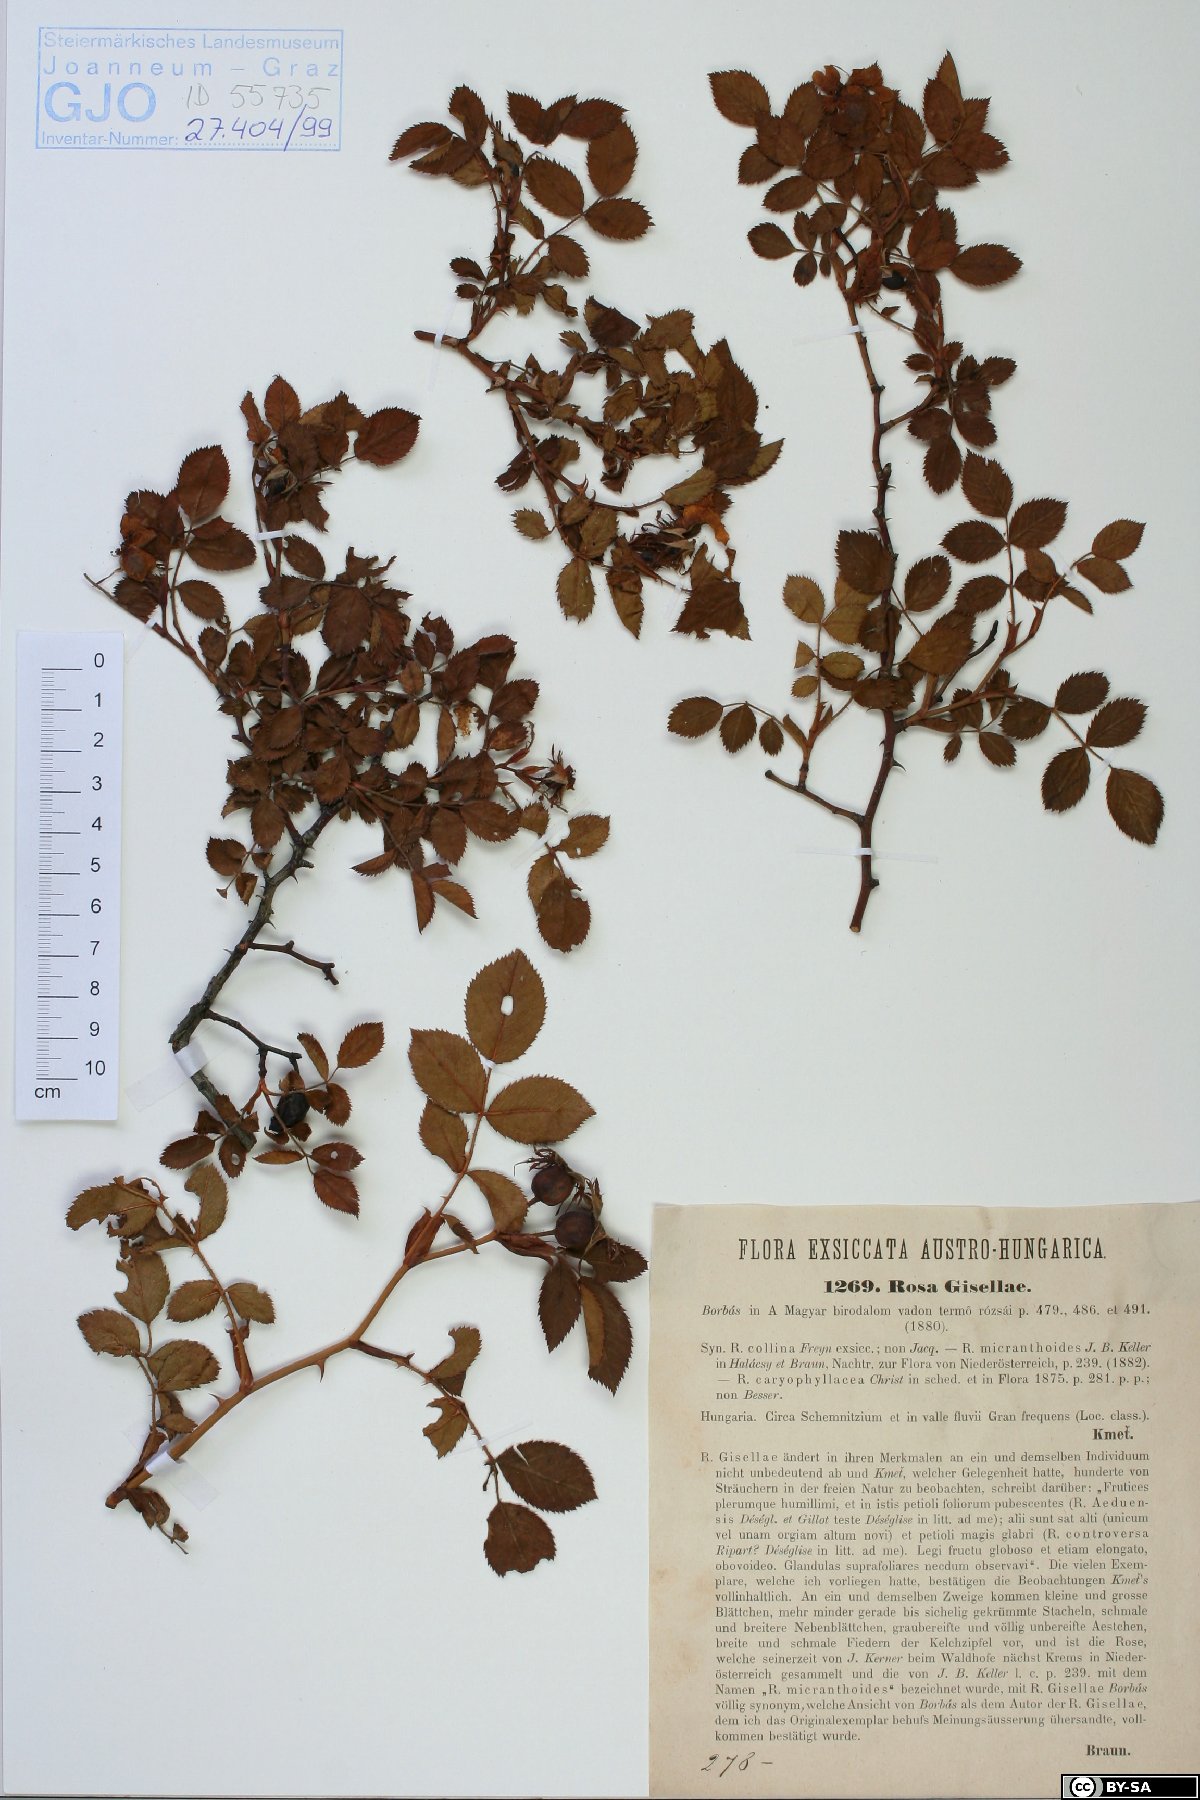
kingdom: Plantae
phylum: Tracheophyta
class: Magnoliopsida
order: Rosales
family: Rosaceae
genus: Rosa
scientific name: Rosa agrestis
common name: Fieldbriar
